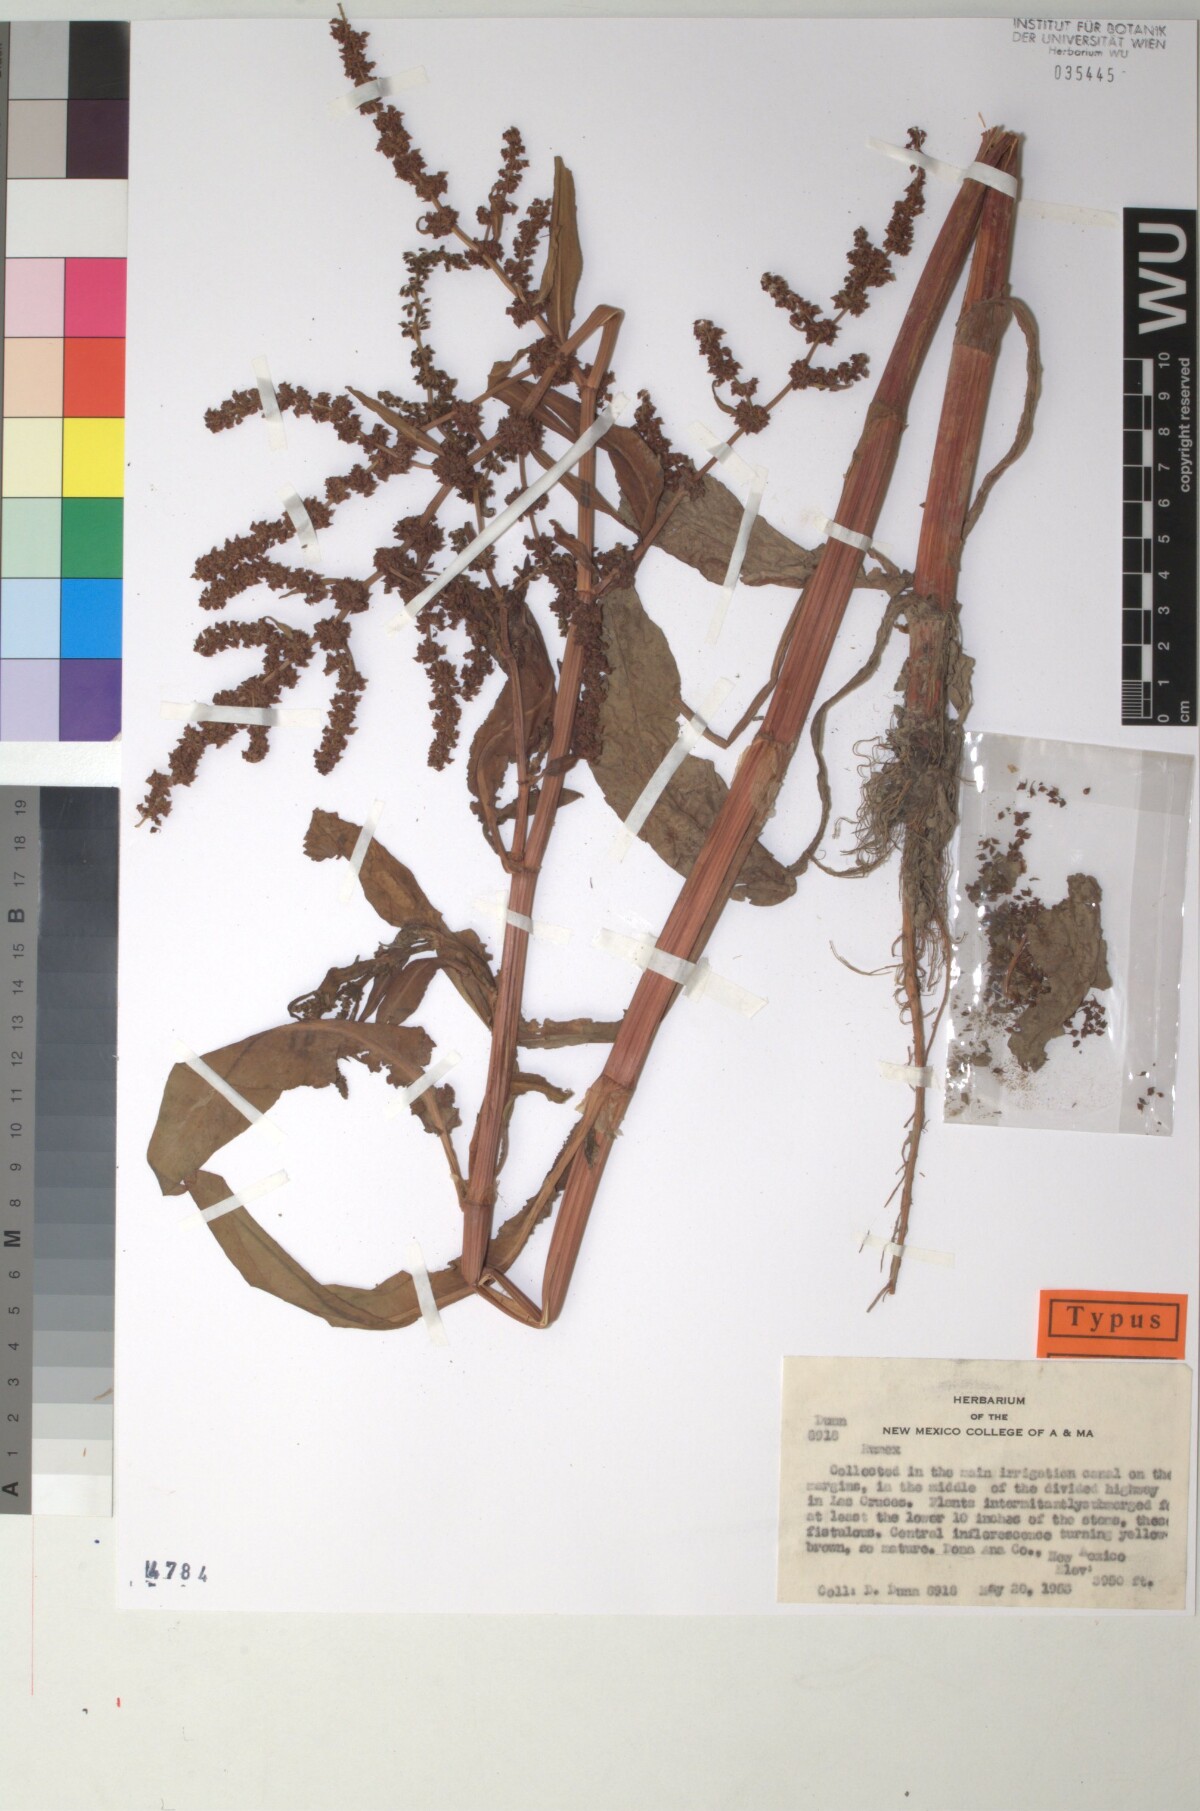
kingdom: Plantae
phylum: Tracheophyta
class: Magnoliopsida
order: Caryophyllales
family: Polygonaceae
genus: Rumex
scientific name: Rumex violascens
